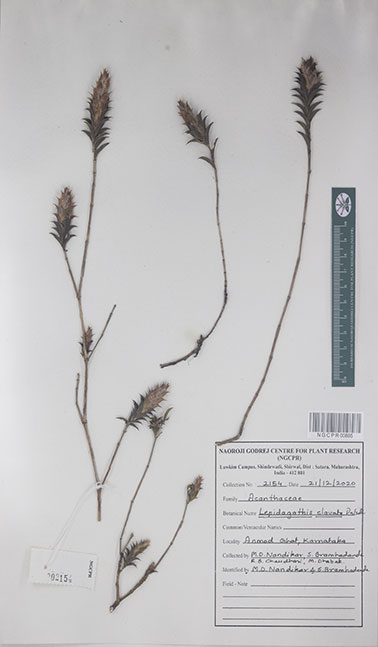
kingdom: Plantae
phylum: Tracheophyta
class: Magnoliopsida
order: Lamiales
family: Acanthaceae
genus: Lepidagathis
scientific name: Lepidagathis clavata
